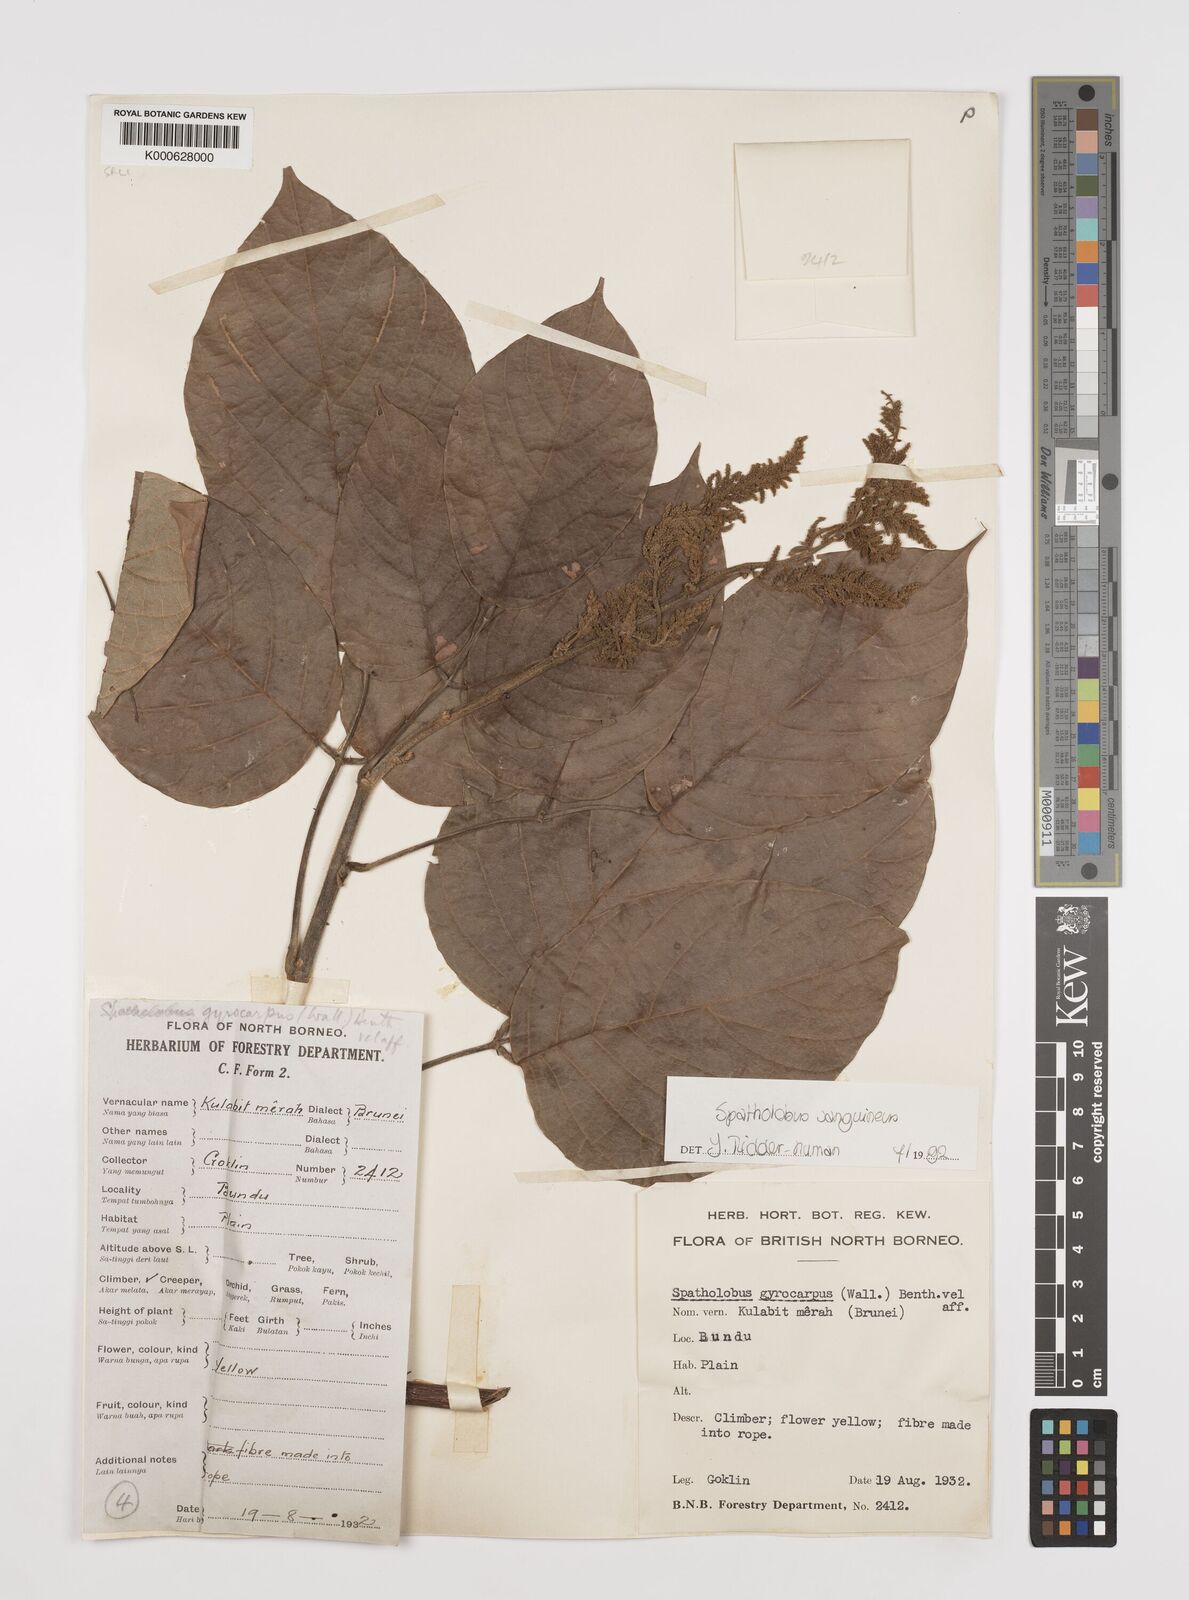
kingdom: Plantae
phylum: Tracheophyta
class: Magnoliopsida
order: Fabales
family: Fabaceae
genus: Spatholobus
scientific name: Spatholobus
